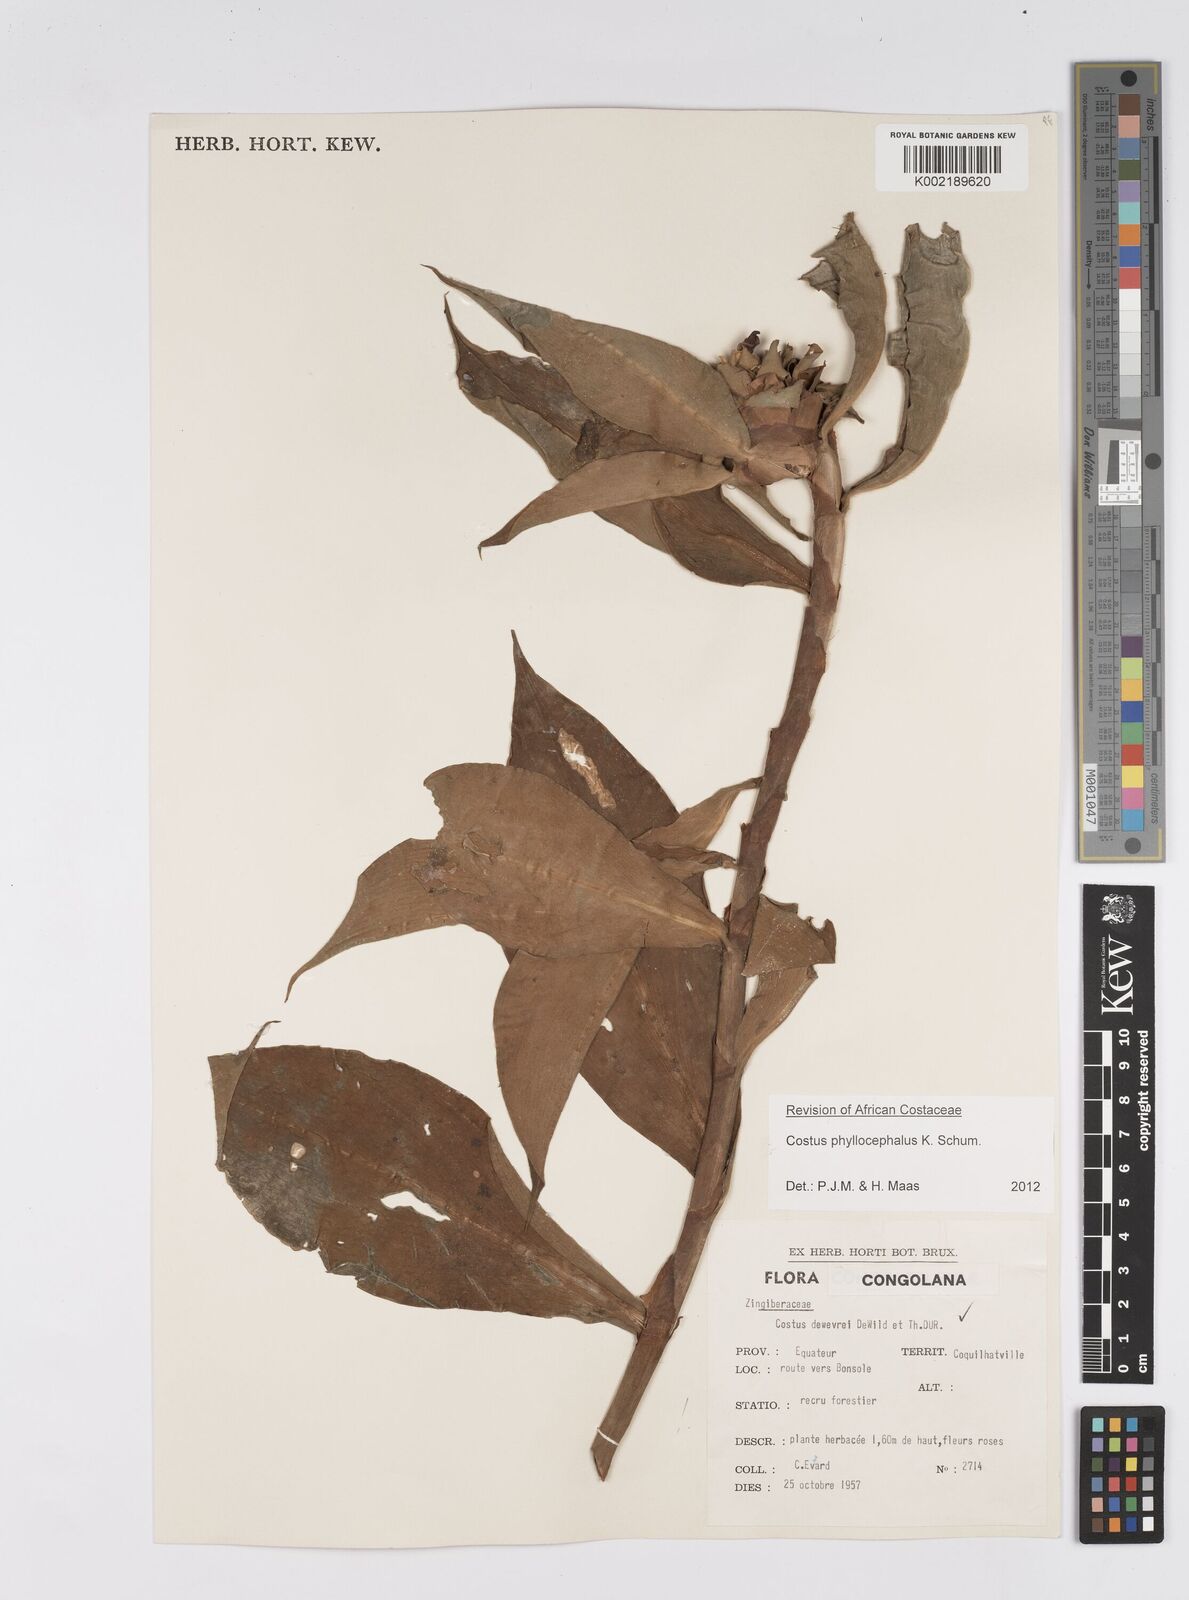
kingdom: Plantae
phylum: Tracheophyta
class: Liliopsida
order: Zingiberales
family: Costaceae
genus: Costus
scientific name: Costus phyllocephalus
